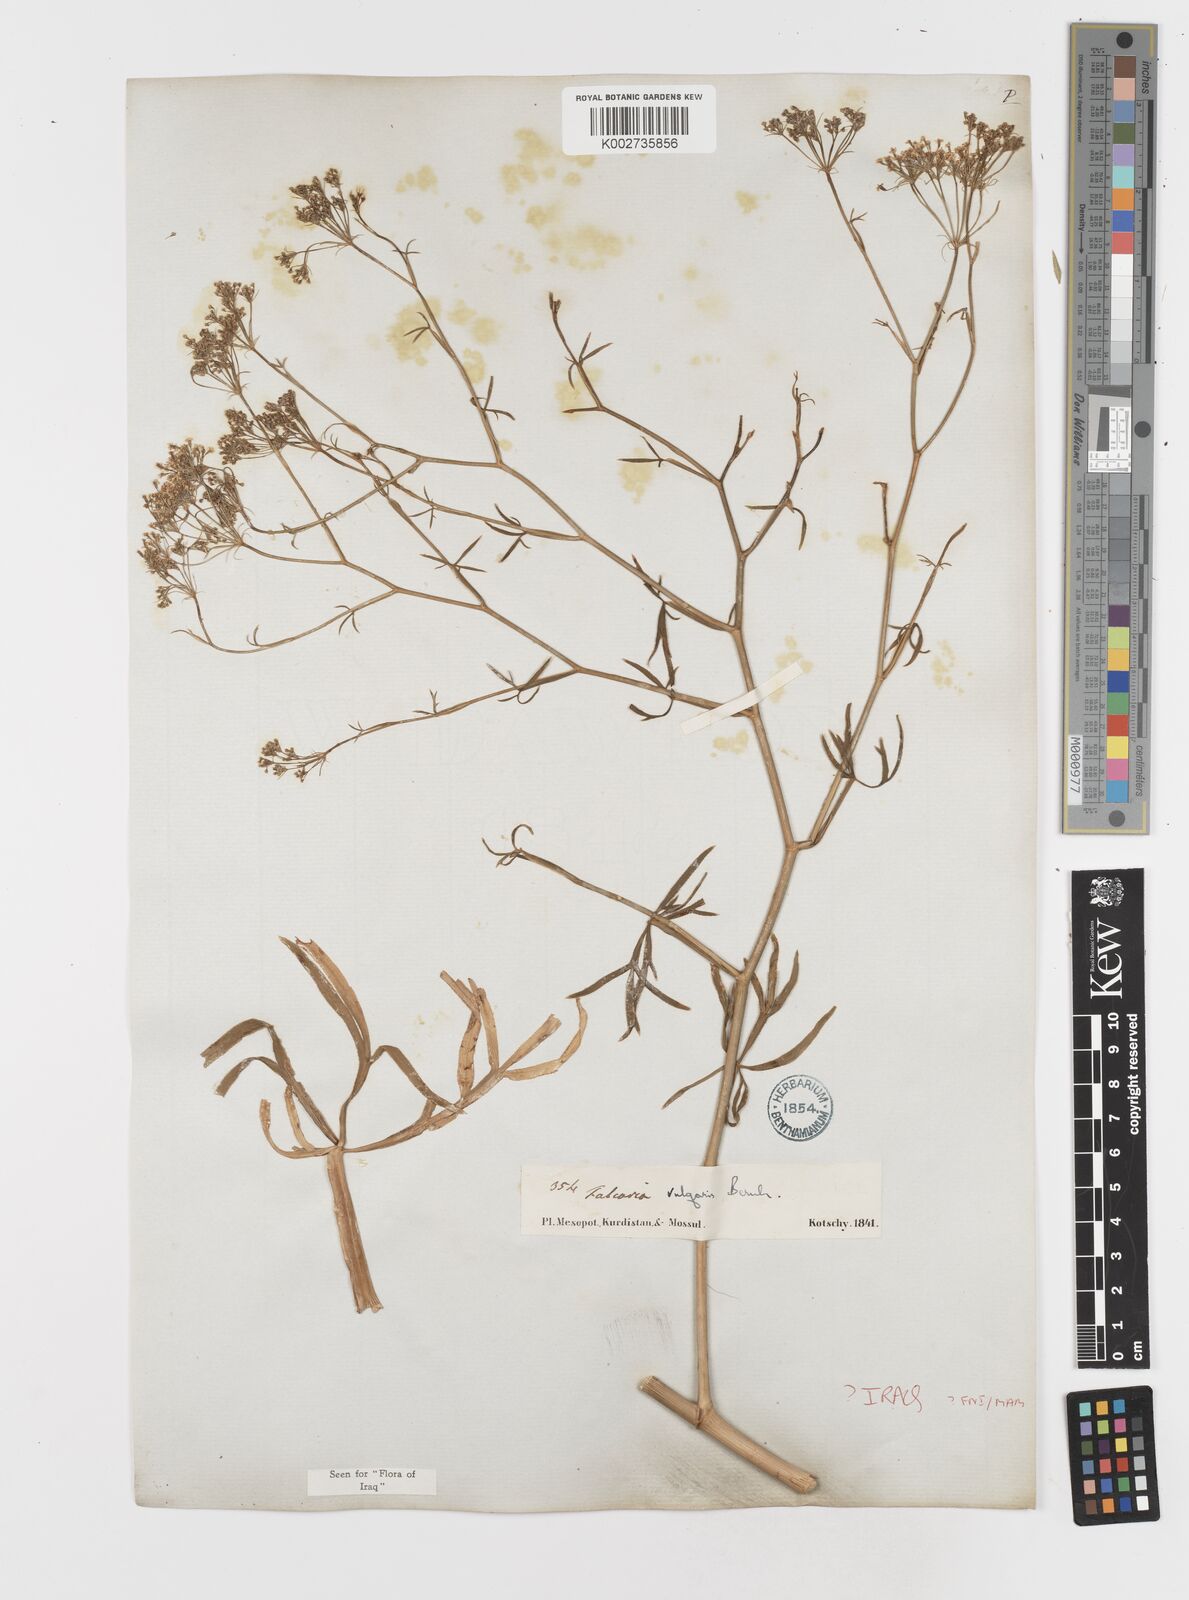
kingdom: Plantae
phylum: Tracheophyta
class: Magnoliopsida
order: Apiales
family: Apiaceae
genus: Falcaria
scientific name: Falcaria vulgaris
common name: Longleaf
